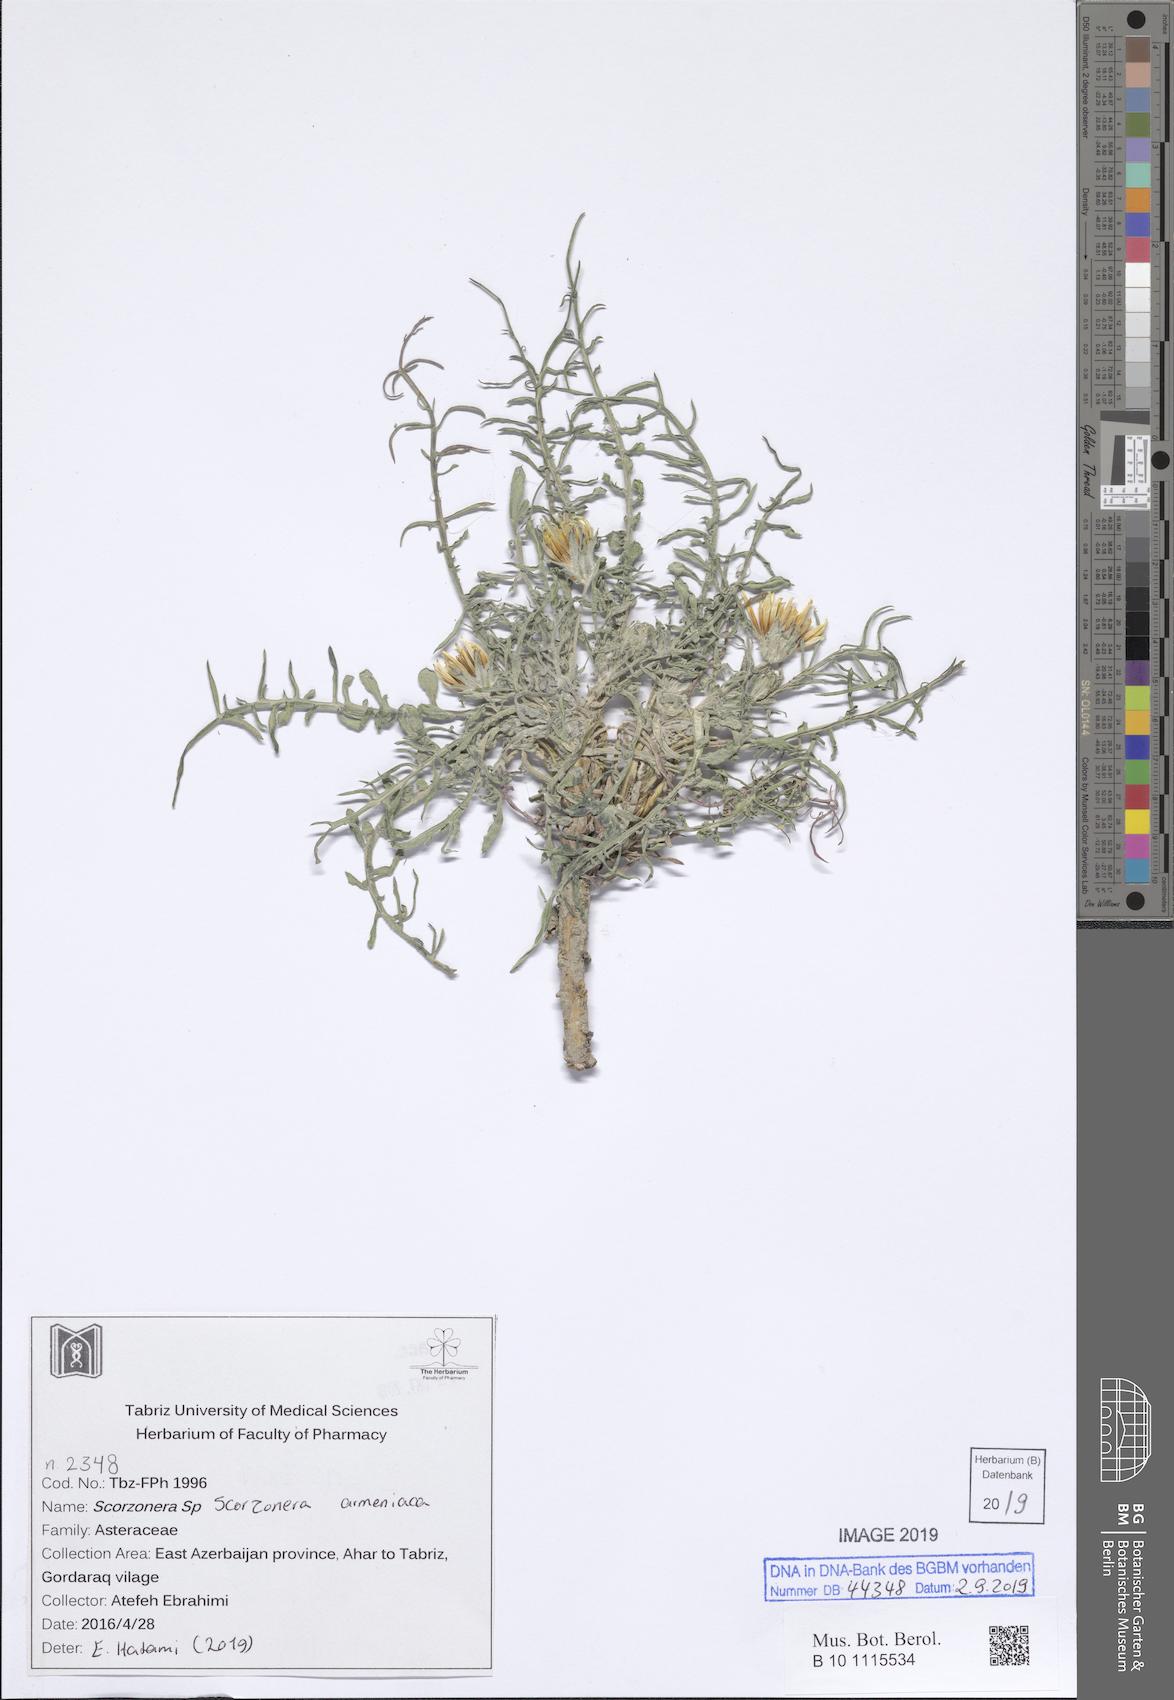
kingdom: Plantae
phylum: Tracheophyta
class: Magnoliopsida
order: Asterales
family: Asteraceae
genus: Scorzonera
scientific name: Scorzonera armeniaca
